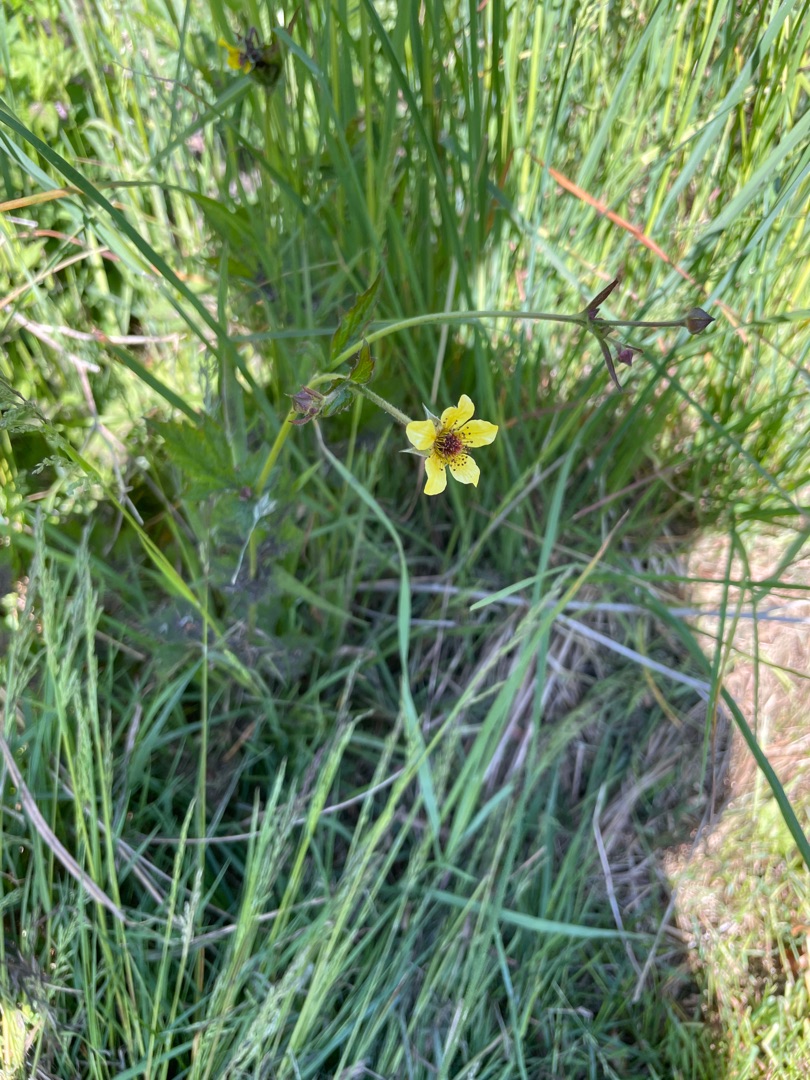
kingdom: Plantae
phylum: Tracheophyta
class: Magnoliopsida
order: Rosales
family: Rosaceae
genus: Geum
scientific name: Geum urbanum
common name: Feber-nellikerod
